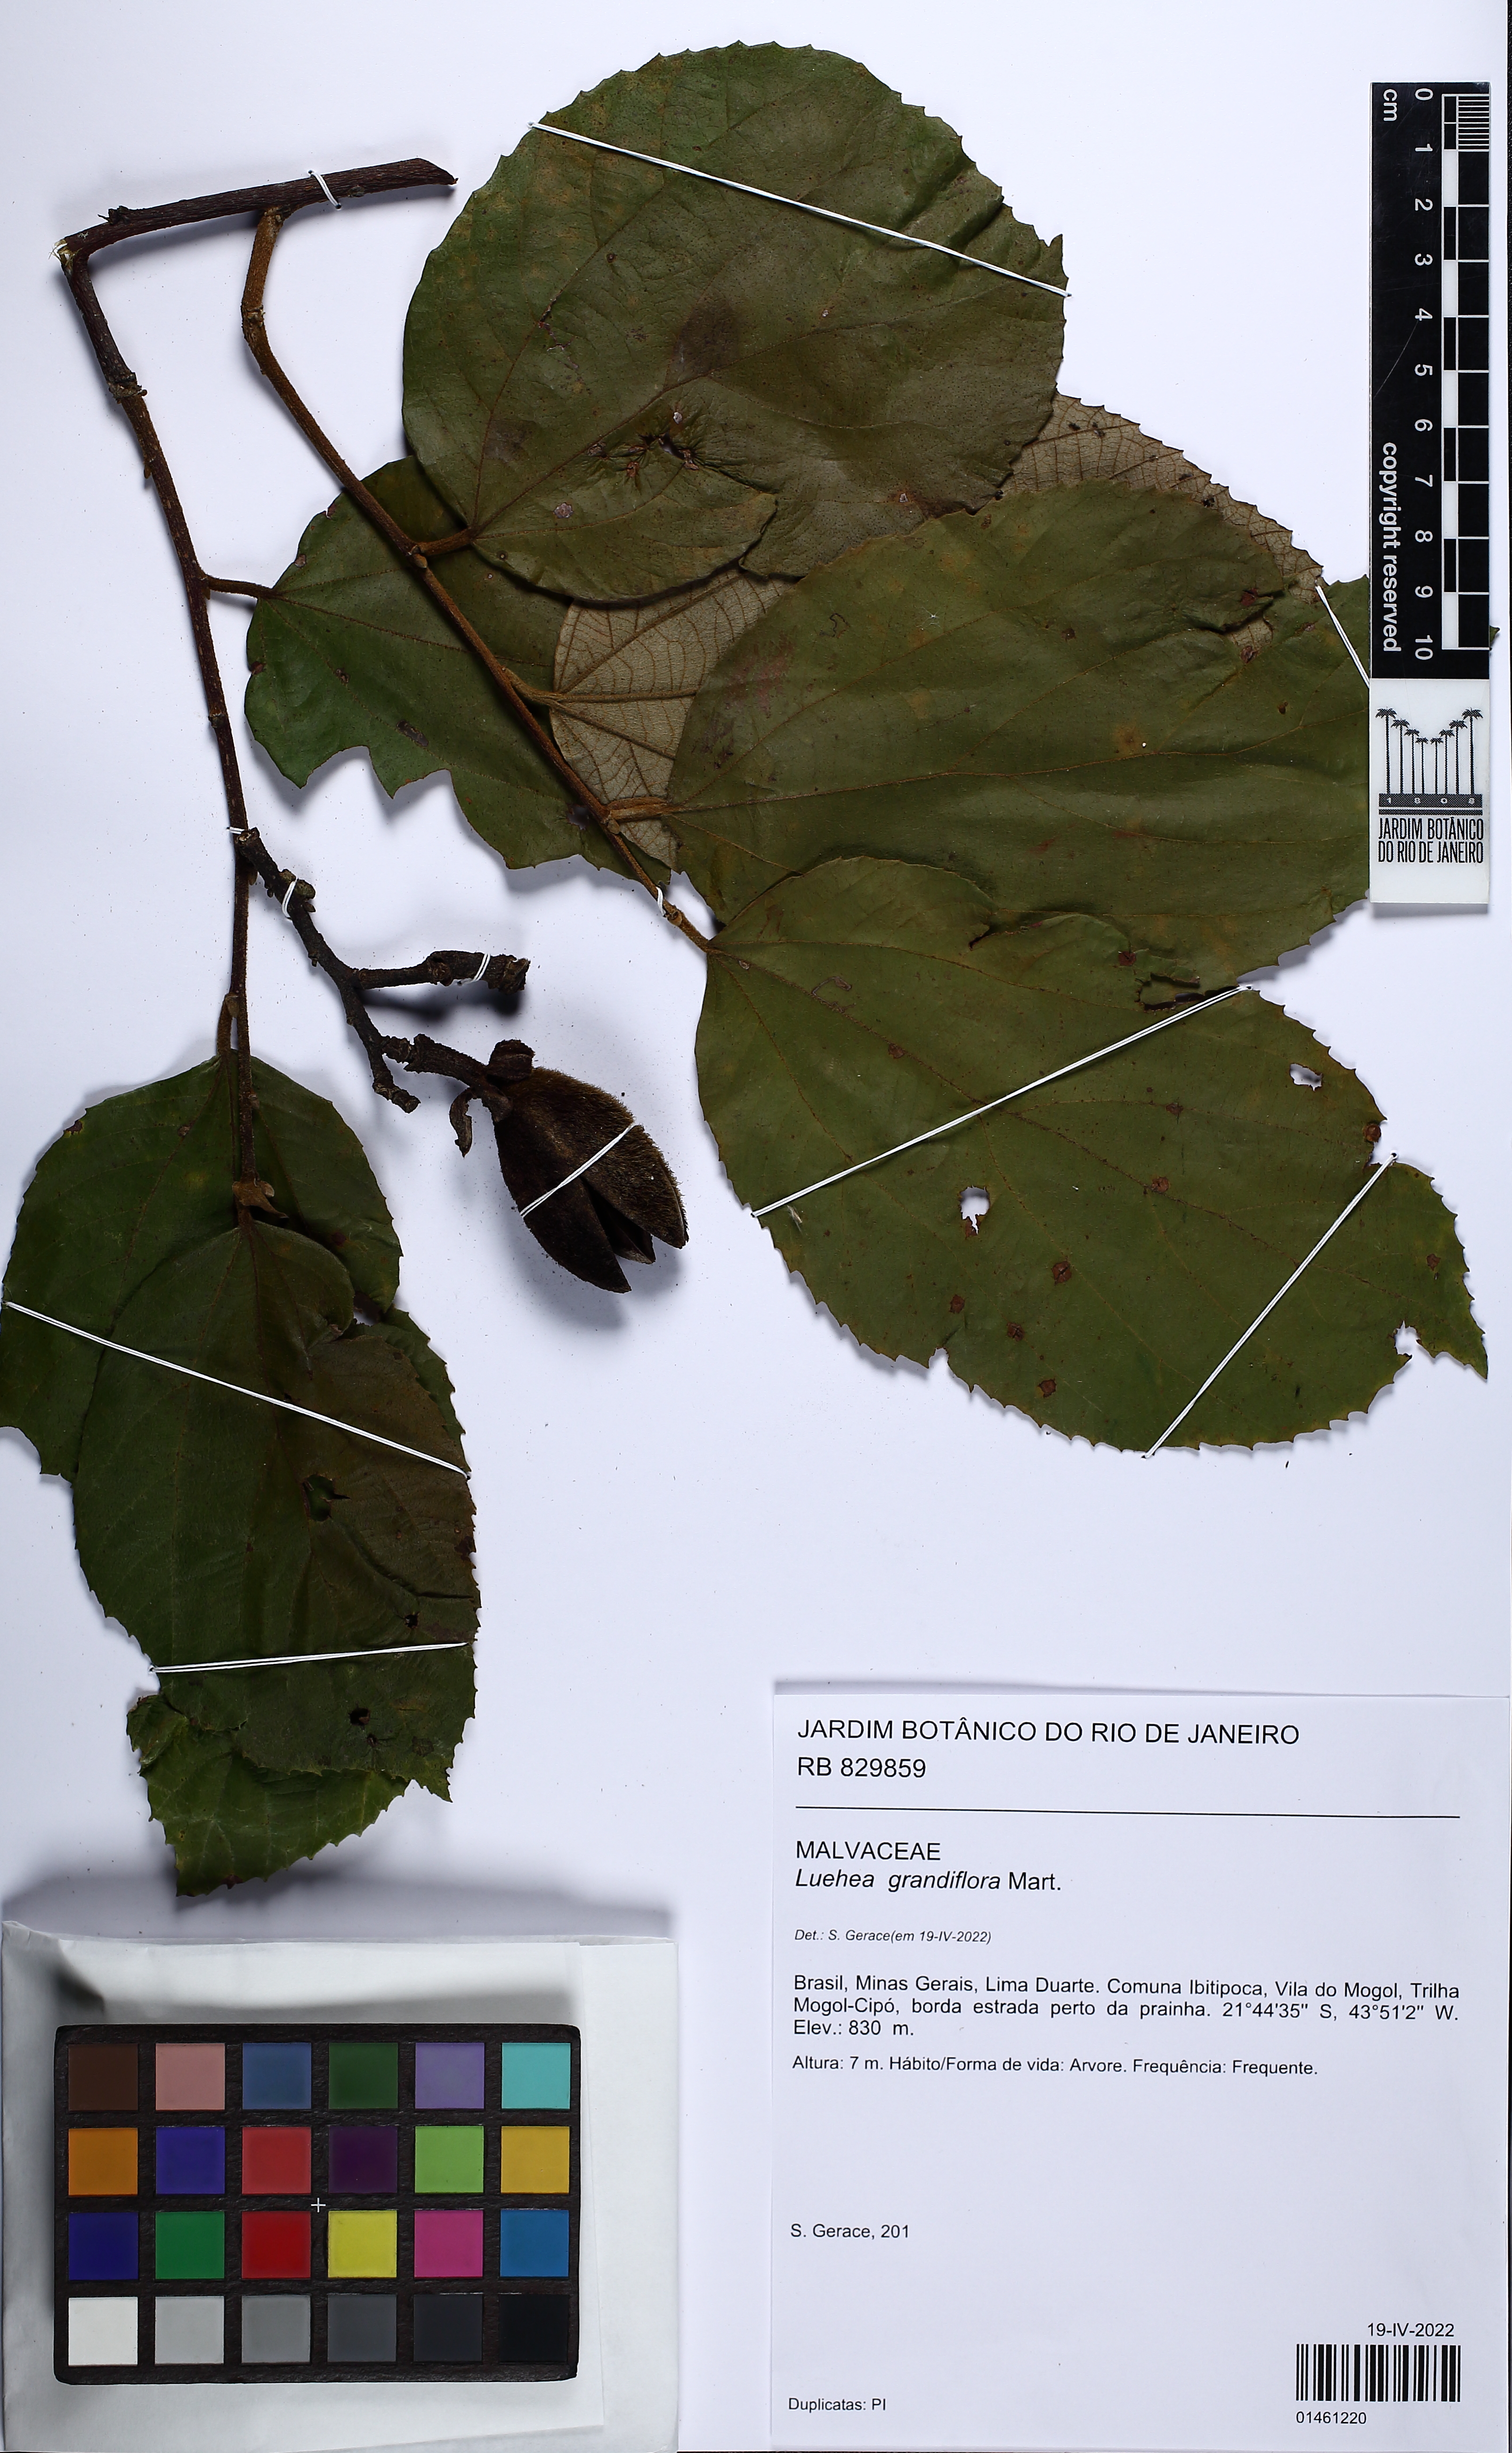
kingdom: Plantae
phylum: Tracheophyta
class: Magnoliopsida
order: Malvales
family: Malvaceae
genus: Luehea
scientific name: Luehea grandiflora
